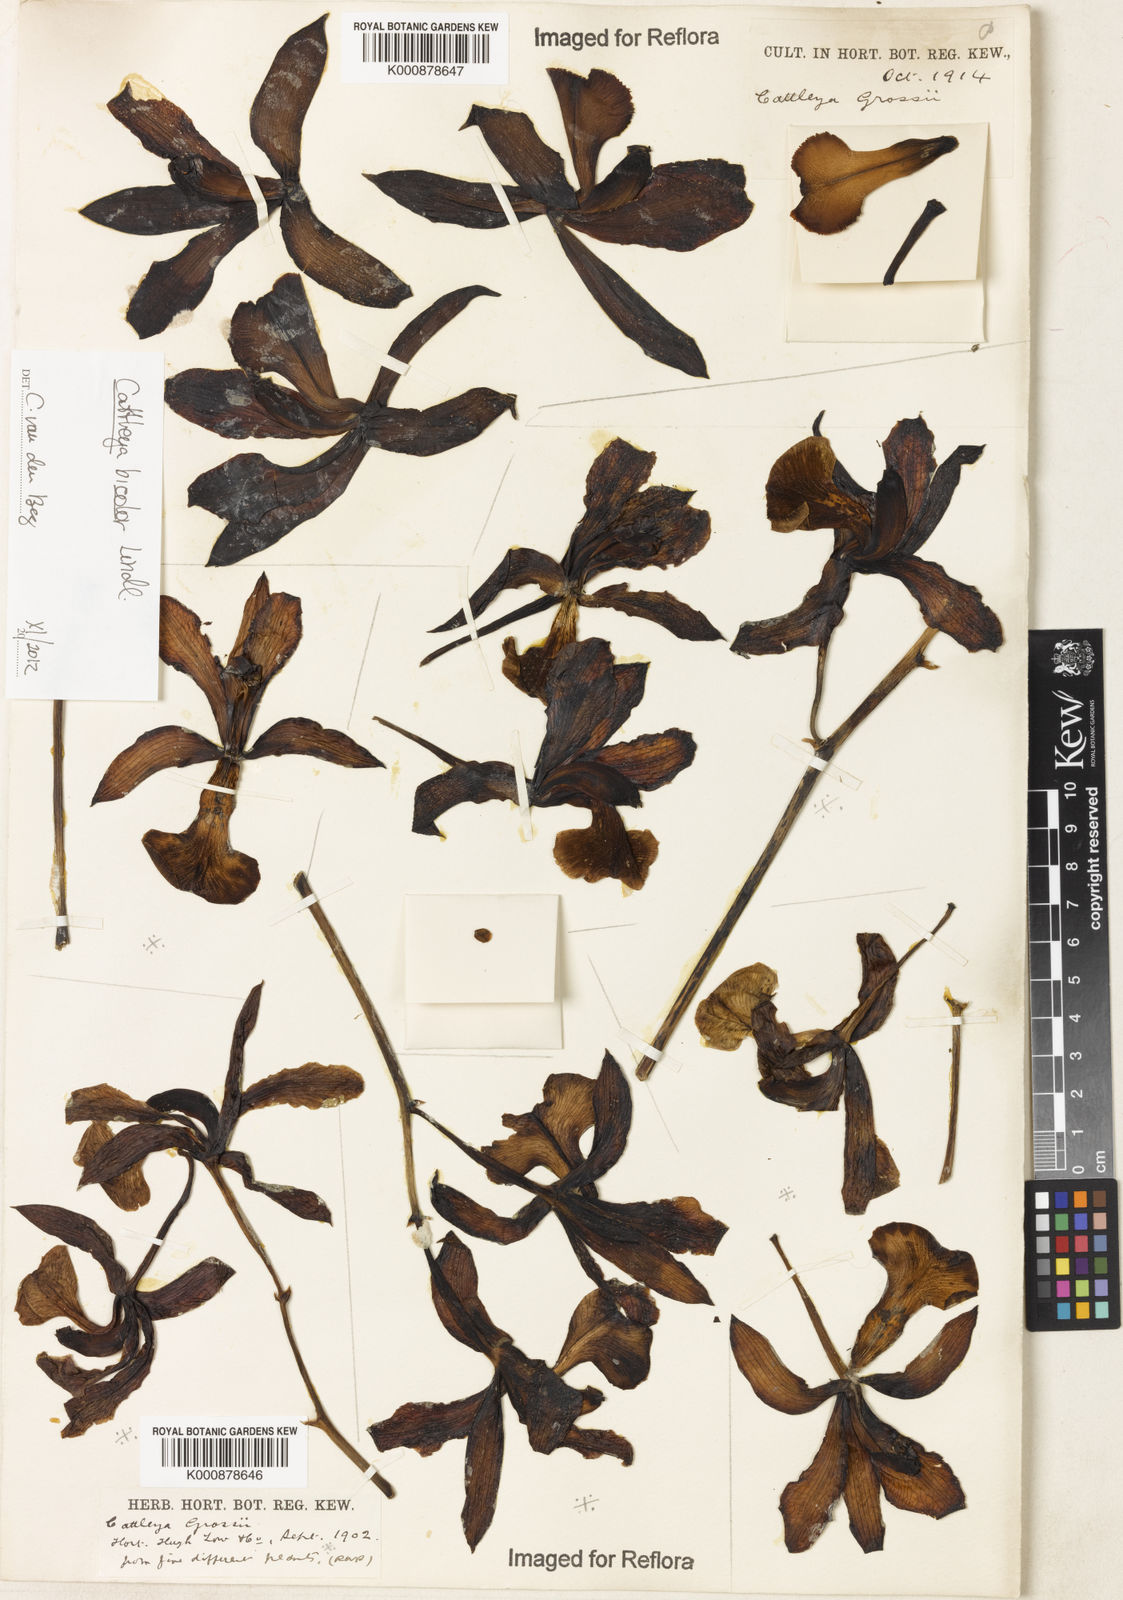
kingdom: Plantae
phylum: Tracheophyta
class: Liliopsida
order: Asparagales
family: Orchidaceae
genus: Cattleya
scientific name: Cattleya bicolor
